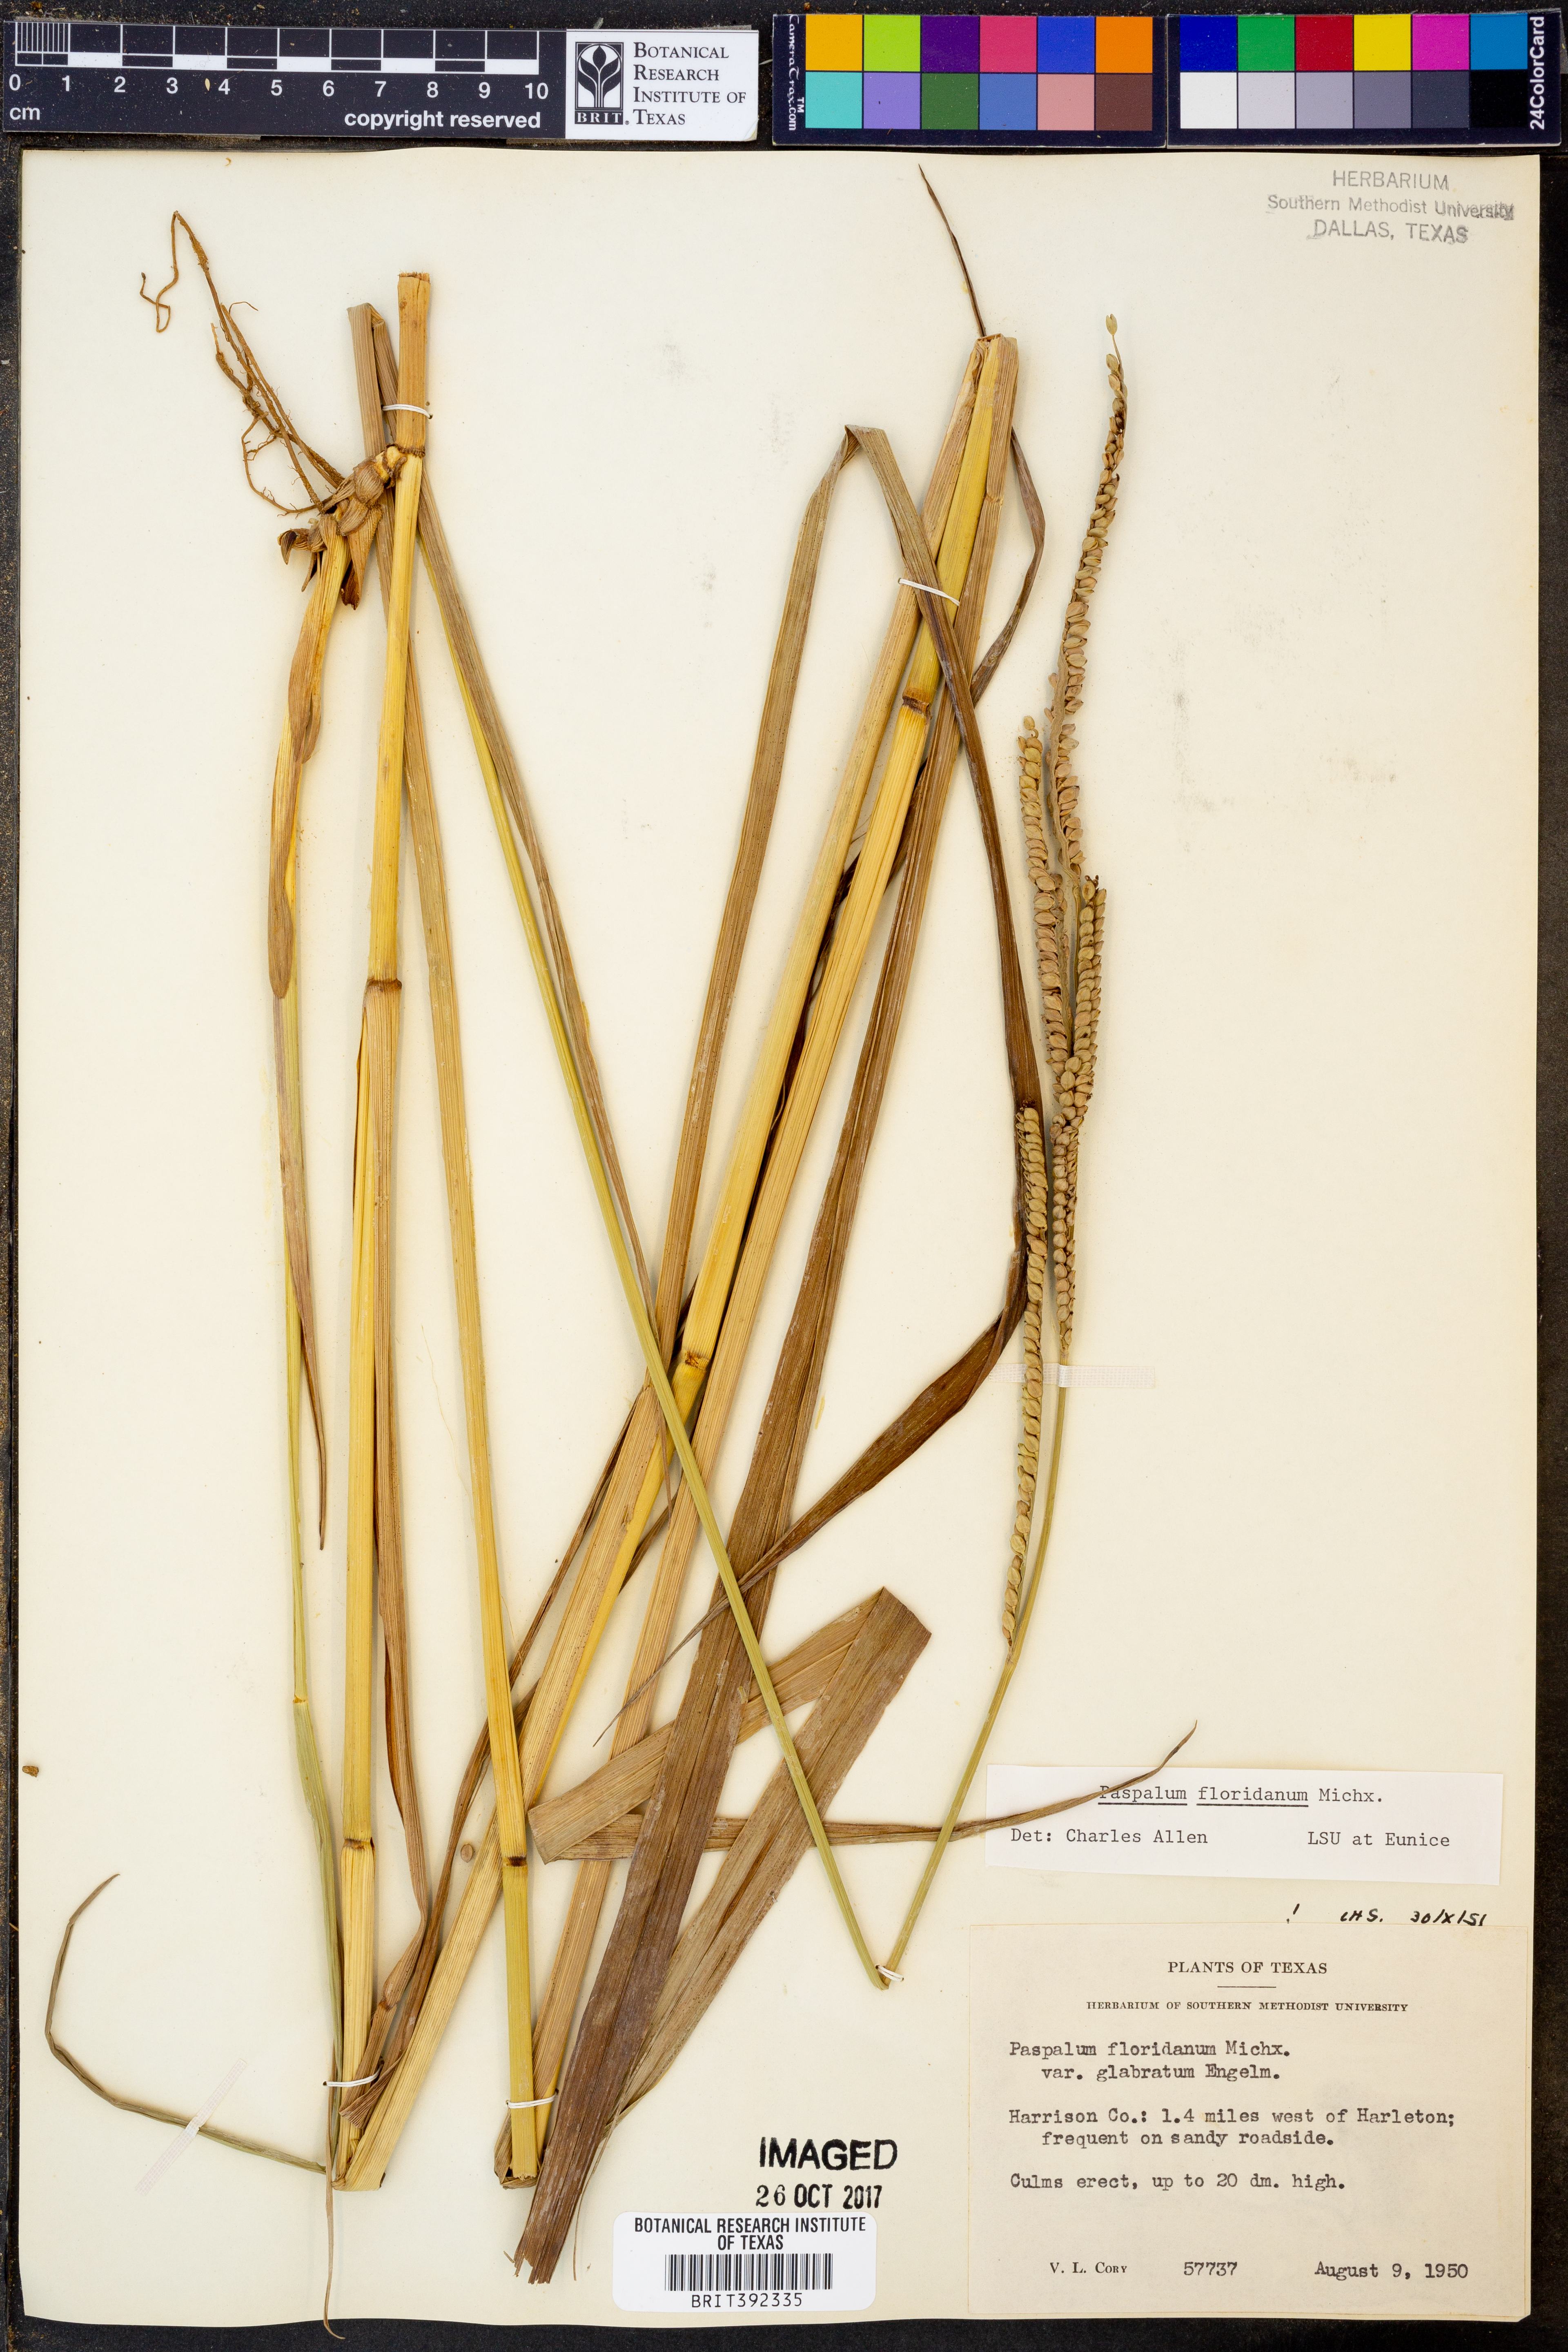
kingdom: Plantae
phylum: Tracheophyta
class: Liliopsida
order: Poales
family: Poaceae
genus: Paspalum
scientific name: Paspalum floridanum
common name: Florida paspalum
